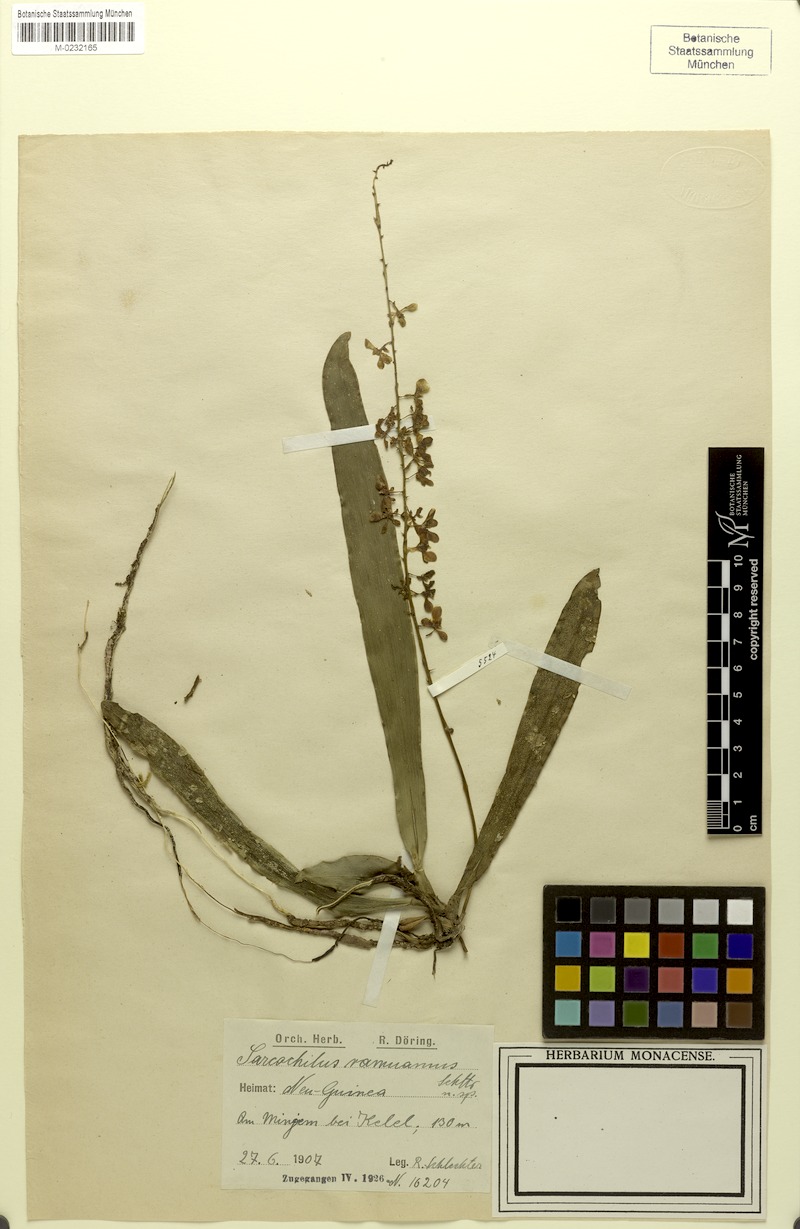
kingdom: Plantae
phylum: Tracheophyta
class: Liliopsida
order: Asparagales
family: Orchidaceae
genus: Bogoria
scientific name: Bogoria ramuana
